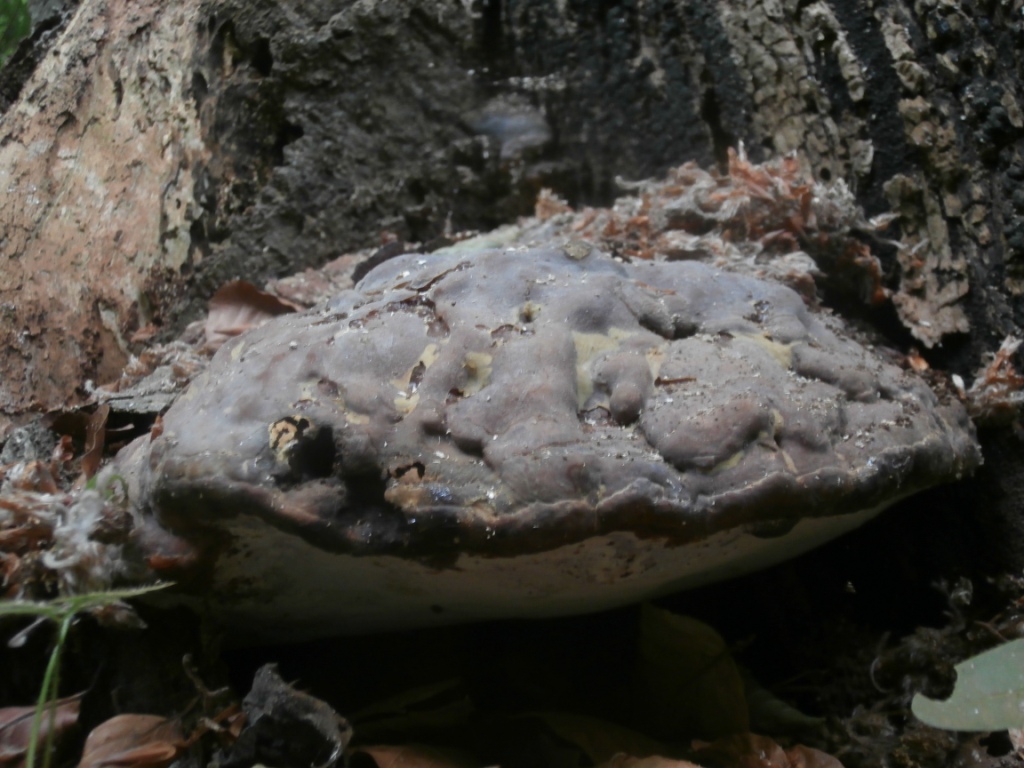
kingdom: Fungi
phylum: Basidiomycota
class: Agaricomycetes
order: Polyporales
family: Polyporaceae
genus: Ganoderma
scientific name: Ganoderma pfeifferi
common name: kobberrød lakporesvamp
